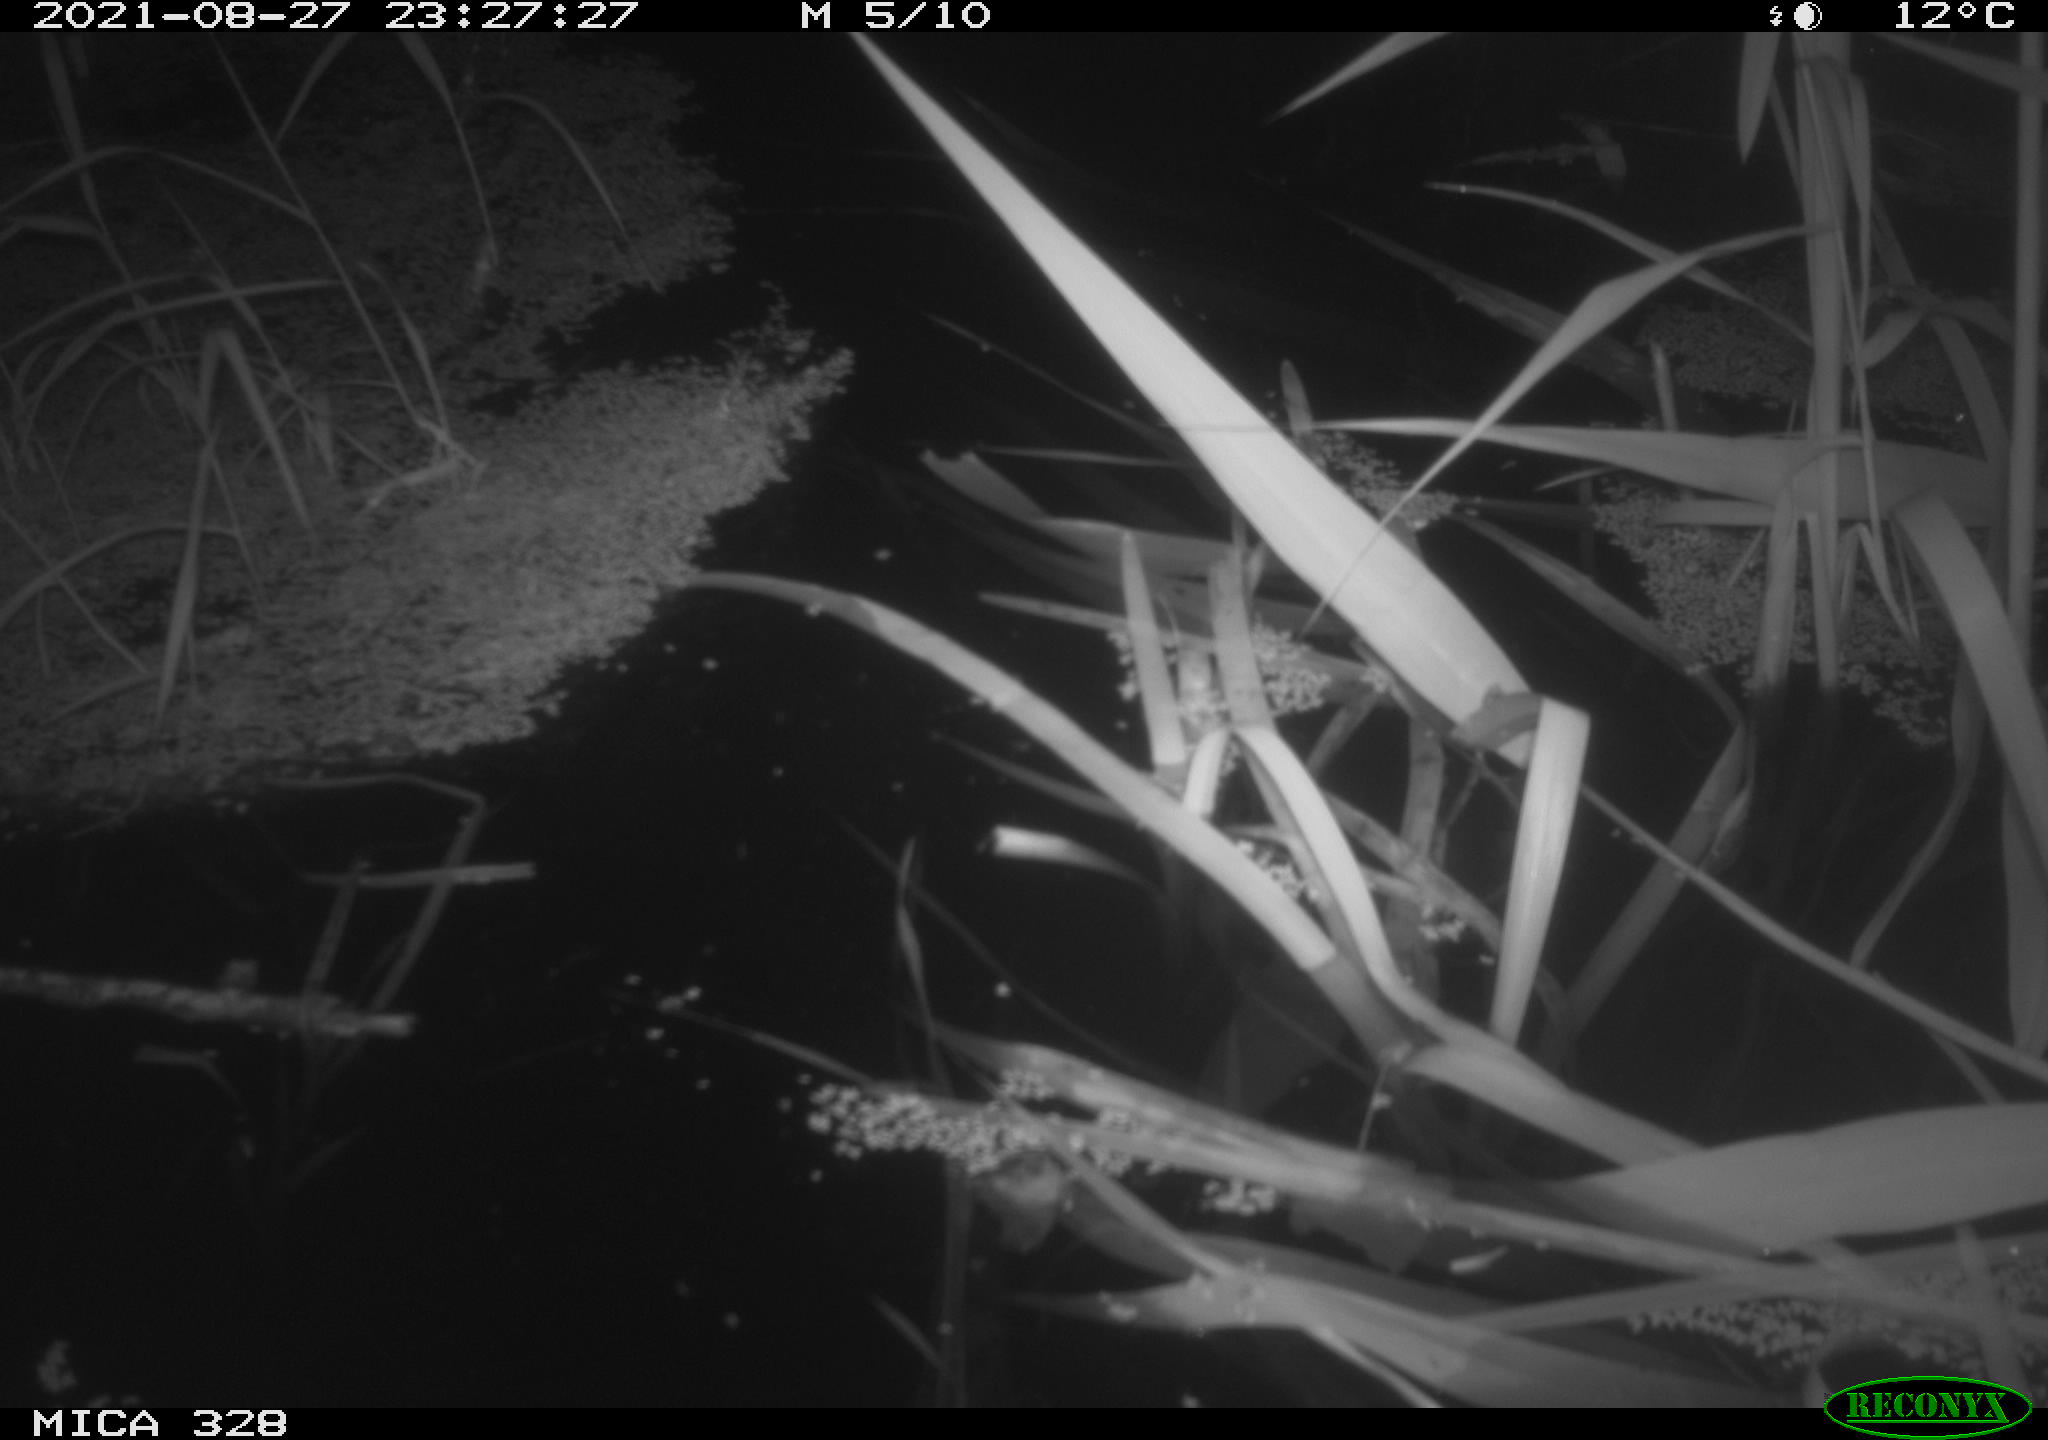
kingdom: Animalia
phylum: Chordata
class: Mammalia
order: Rodentia
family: Muridae
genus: Rattus
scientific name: Rattus norvegicus
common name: Brown rat
